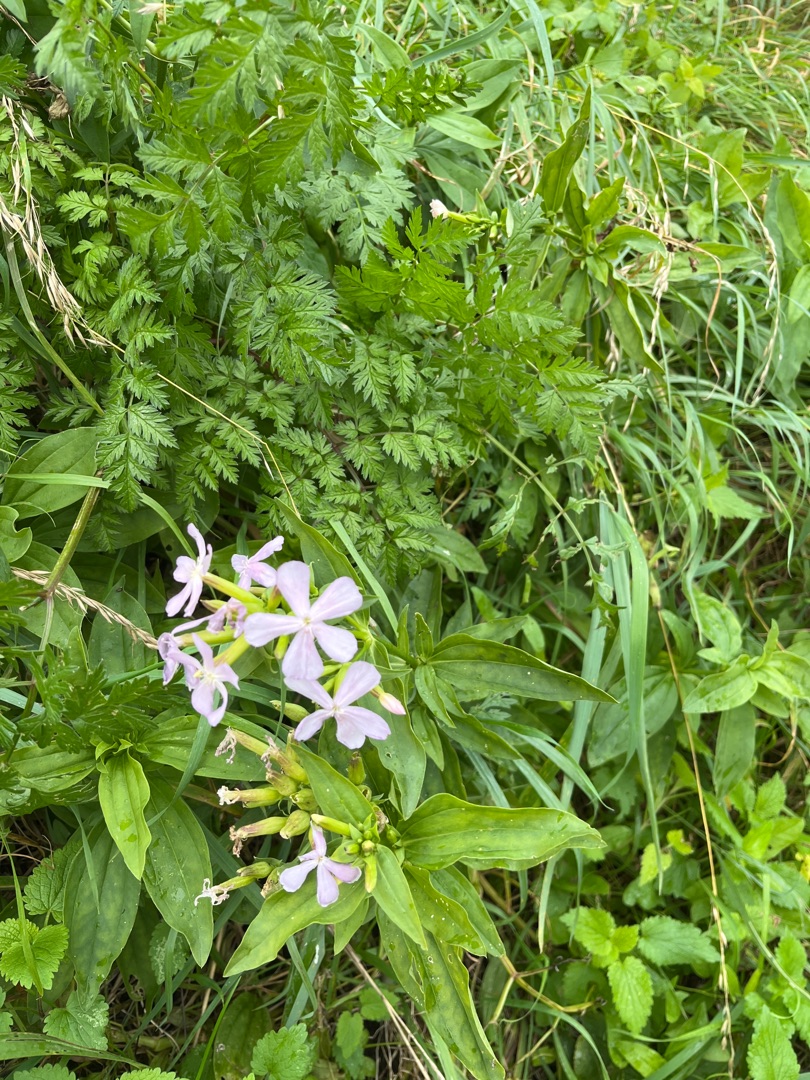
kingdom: Plantae
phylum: Tracheophyta
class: Magnoliopsida
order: Caryophyllales
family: Caryophyllaceae
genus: Saponaria
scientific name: Saponaria officinalis
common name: Sæbeurt
